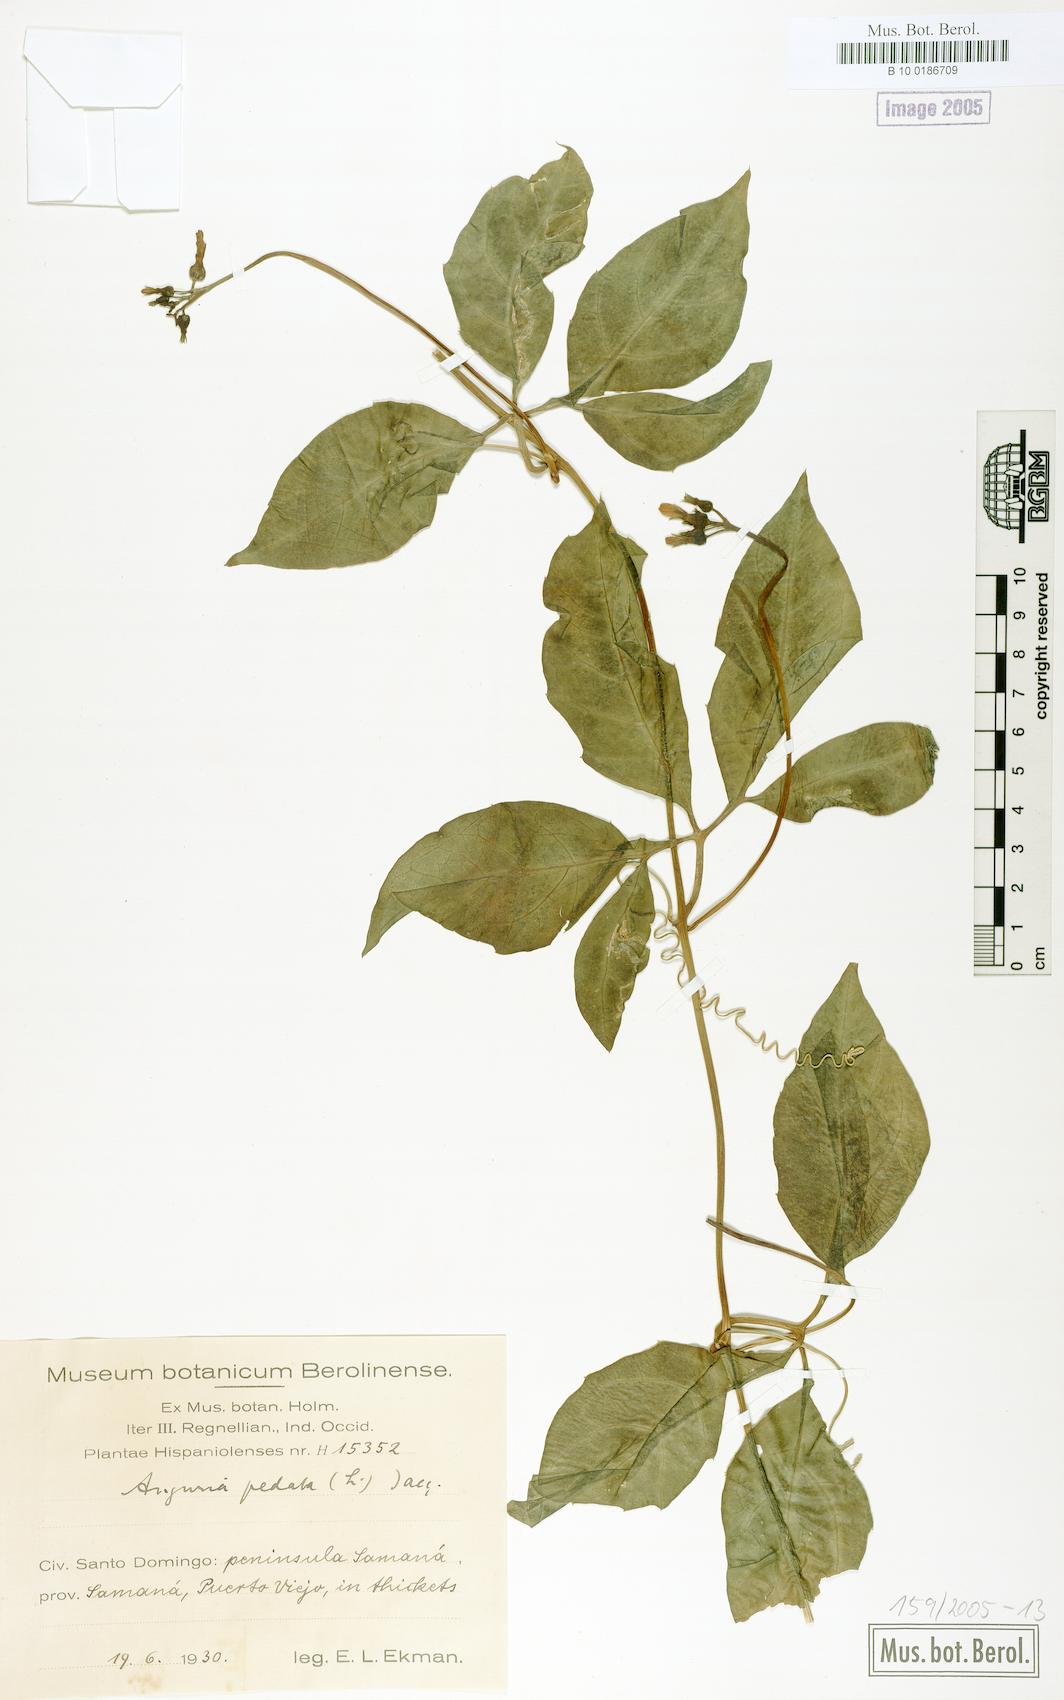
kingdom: Plantae
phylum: Tracheophyta
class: Magnoliopsida
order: Cucurbitales
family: Cucurbitaceae
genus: Gurania
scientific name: Gurania pedata
